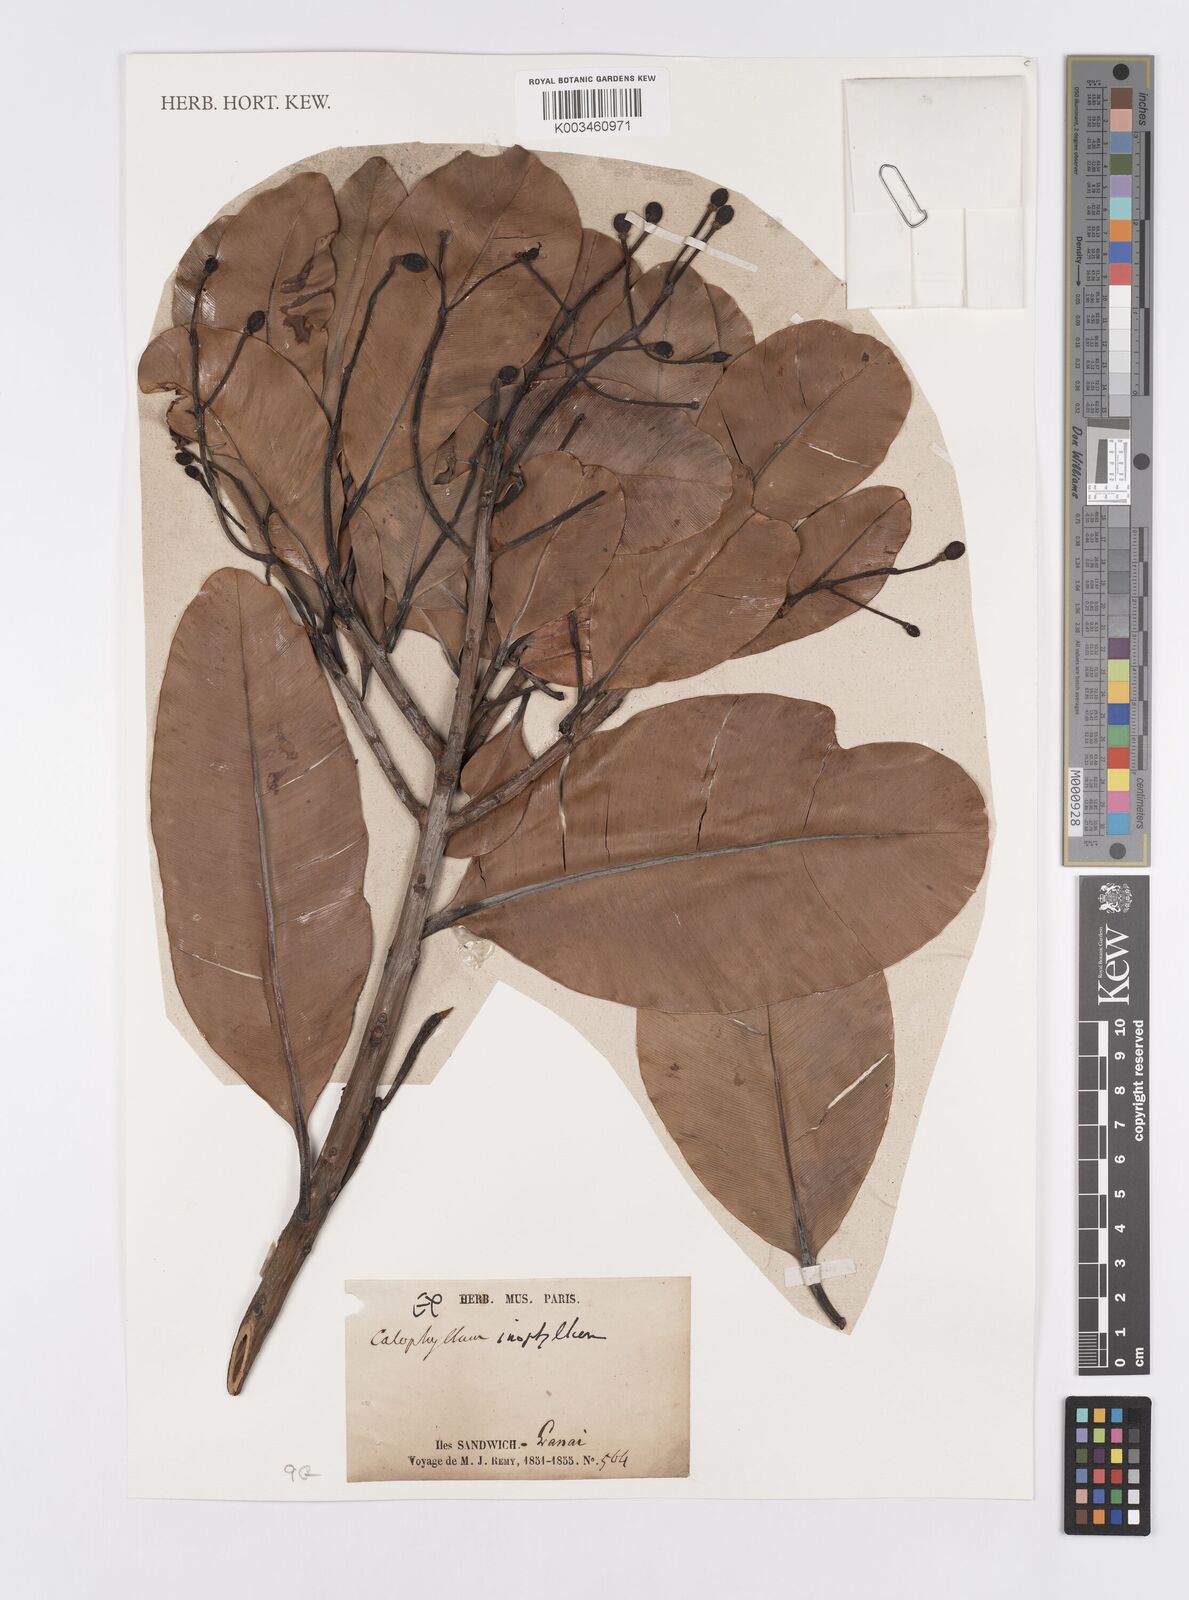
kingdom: Plantae
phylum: Tracheophyta
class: Magnoliopsida
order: Malpighiales
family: Calophyllaceae
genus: Calophyllum
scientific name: Calophyllum inophyllum
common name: Alexandrian laurel
